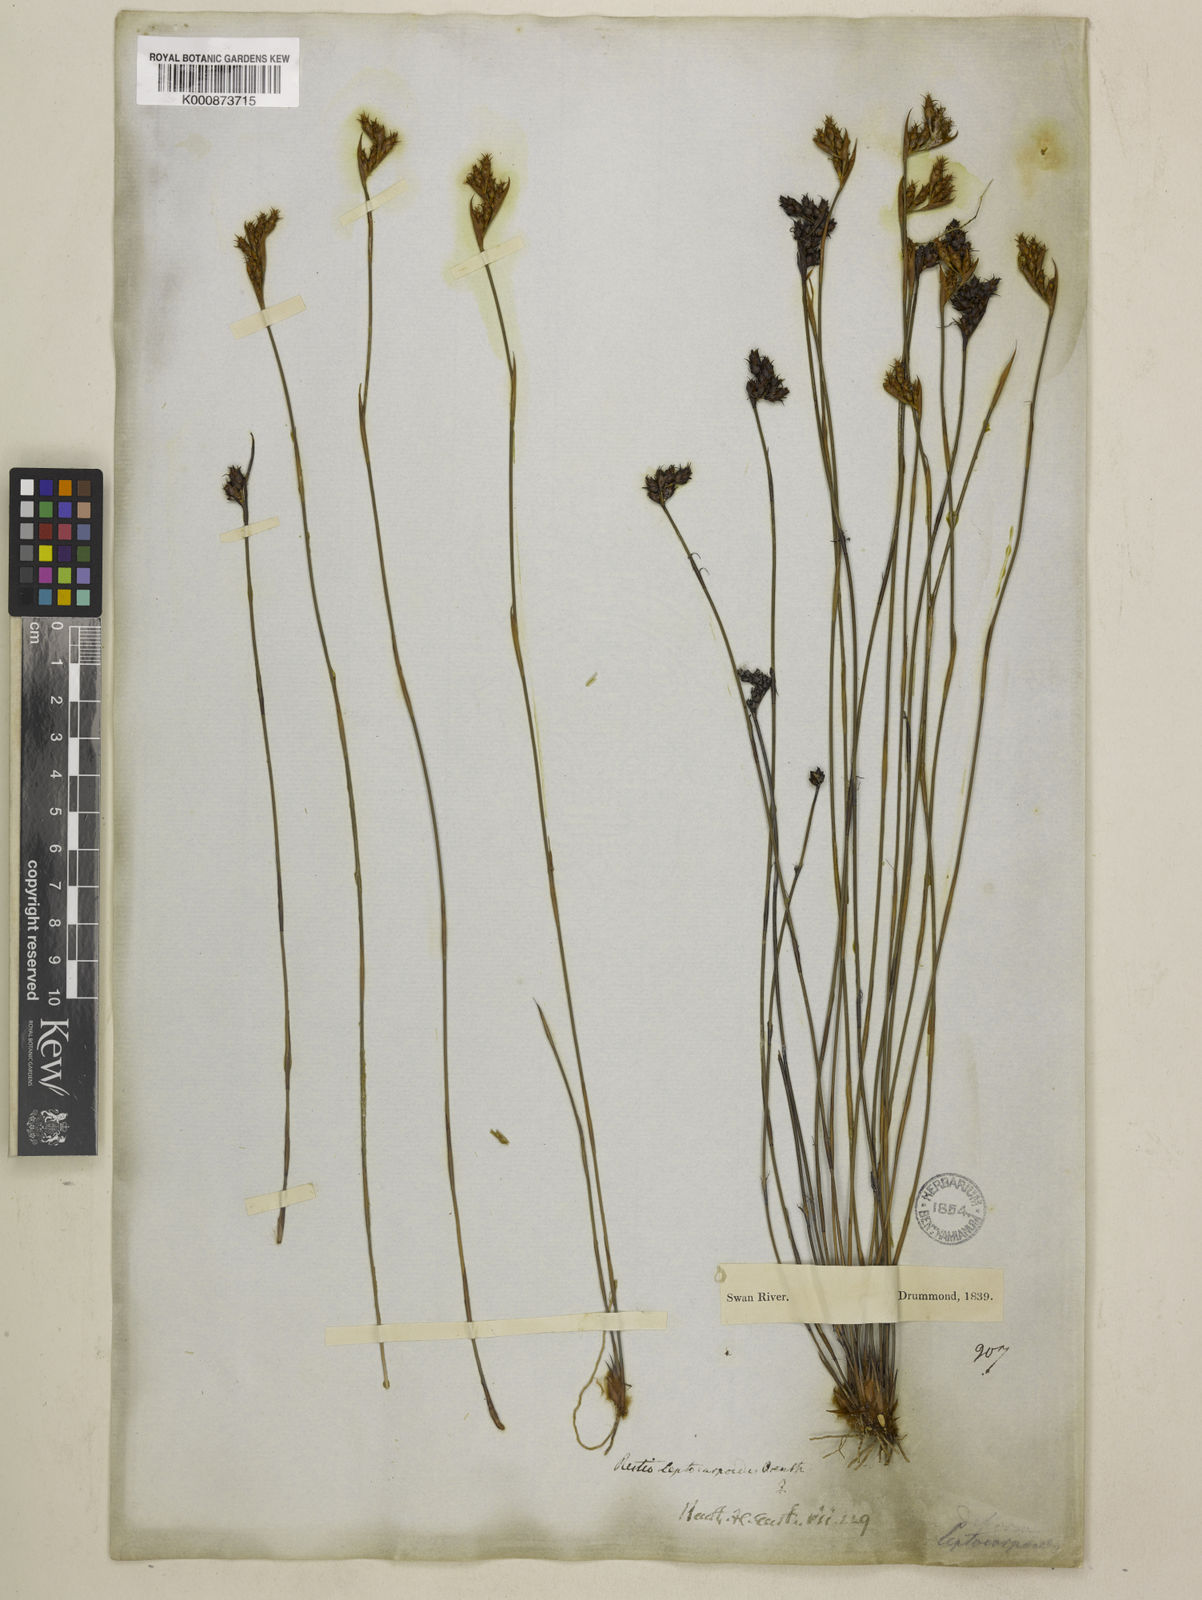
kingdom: Plantae
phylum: Tracheophyta
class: Liliopsida
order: Poales
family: Restionaceae
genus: Cytogonidium
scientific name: Cytogonidium leptocarpoides
